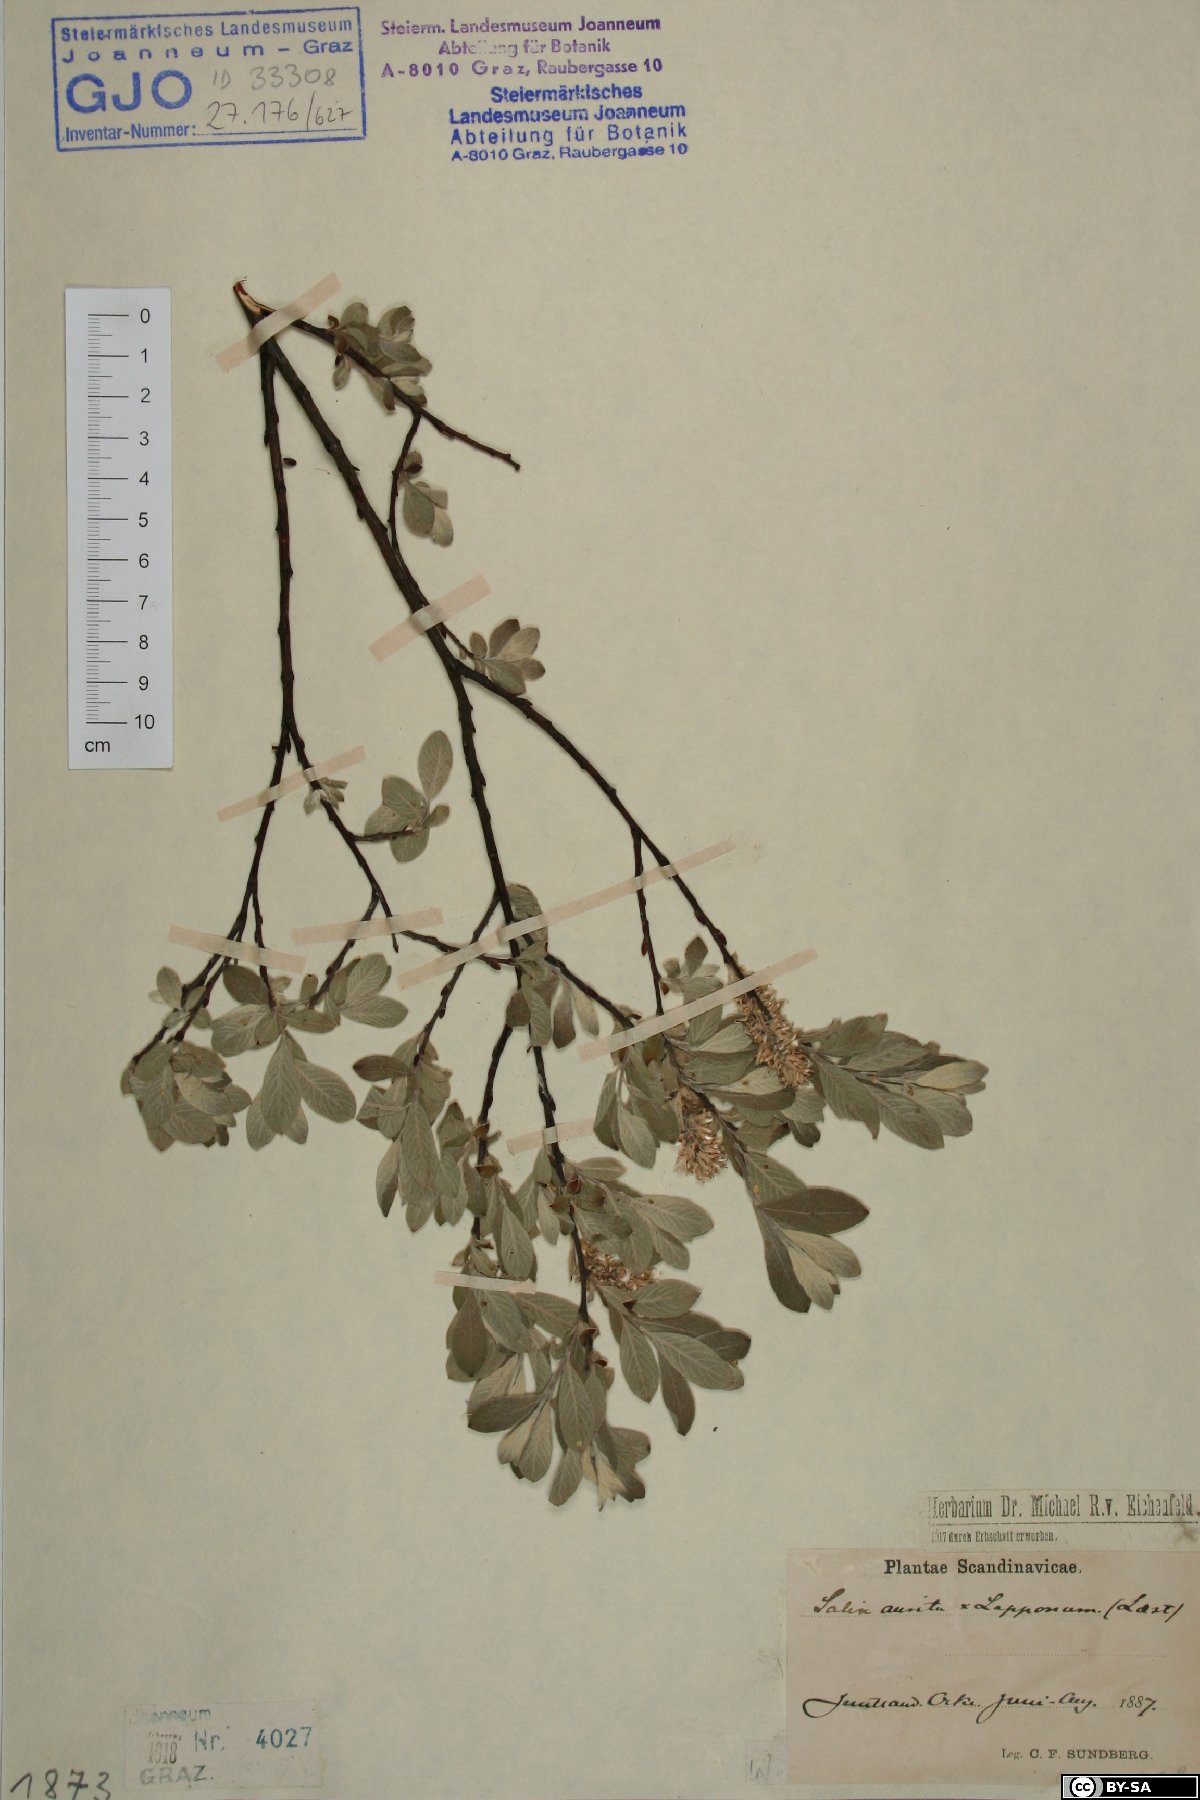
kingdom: Plantae
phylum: Tracheophyta
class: Magnoliopsida
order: Malpighiales
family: Salicaceae
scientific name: Salicaceae
